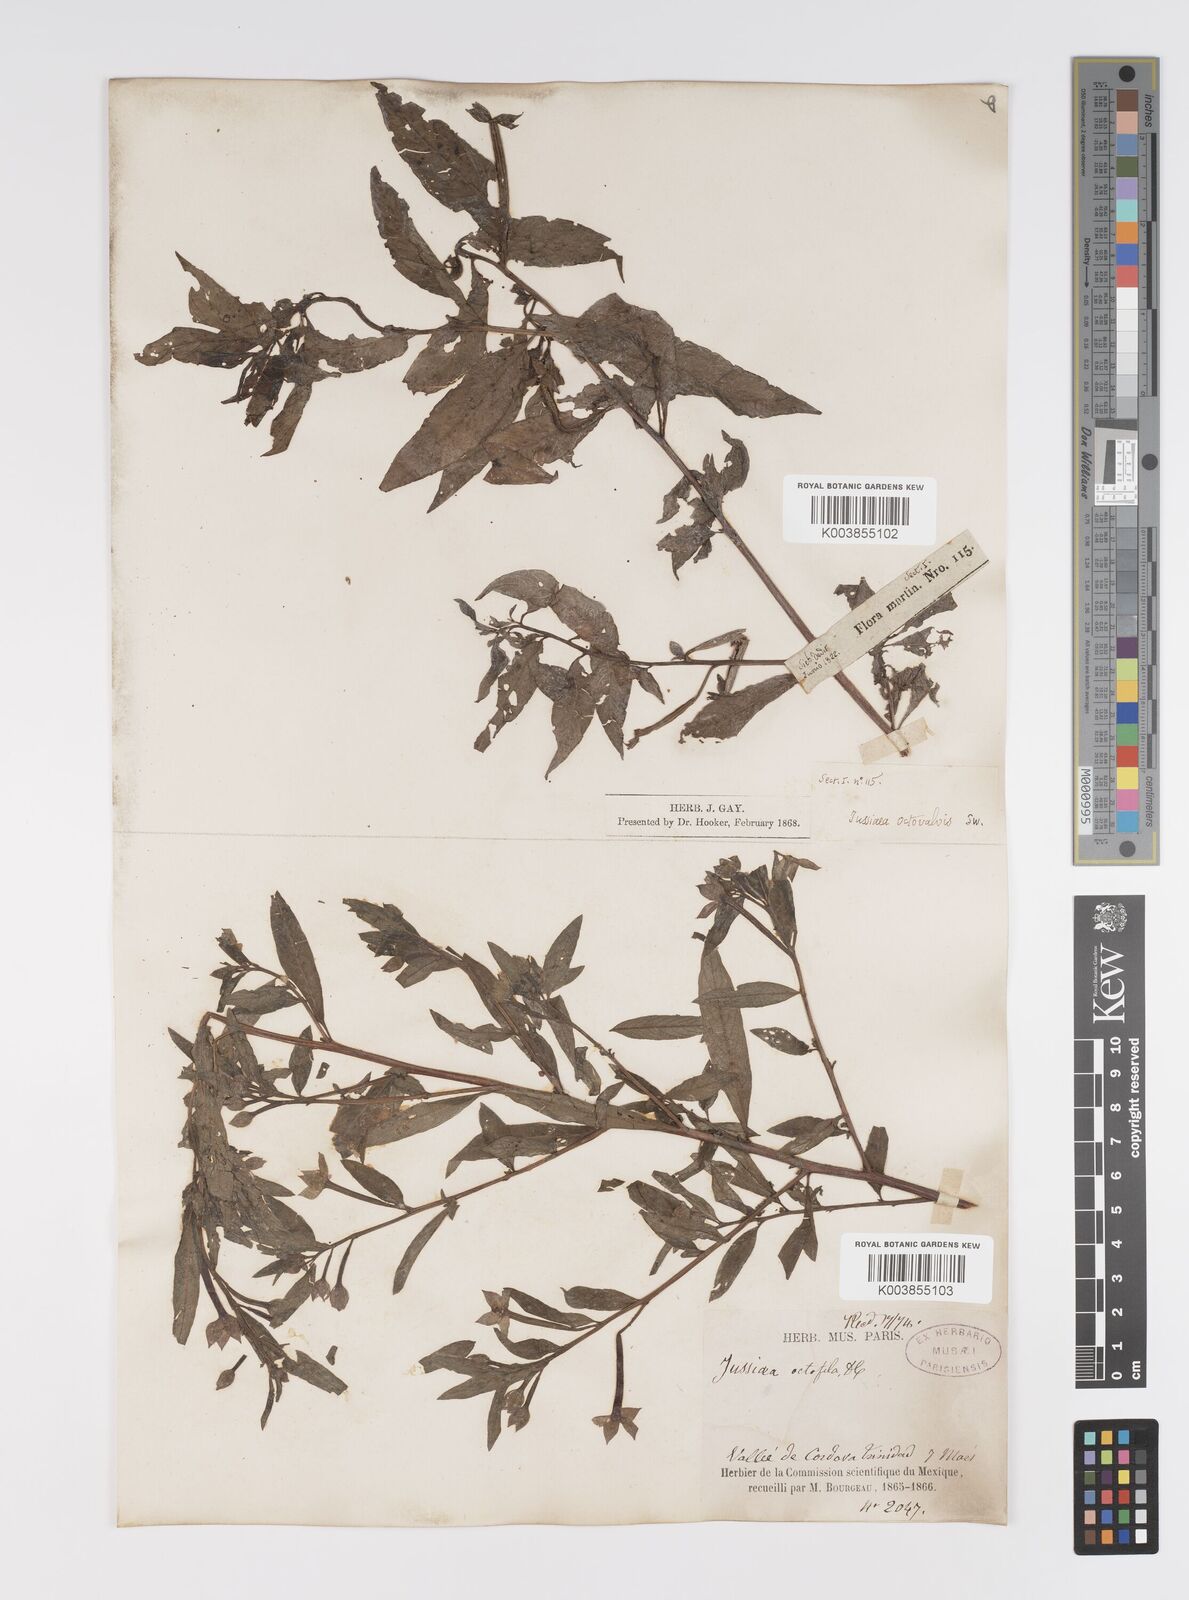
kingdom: Plantae
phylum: Tracheophyta
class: Magnoliopsida
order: Myrtales
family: Onagraceae
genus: Ludwigia
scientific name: Ludwigia octovalvis
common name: Water-primrose
